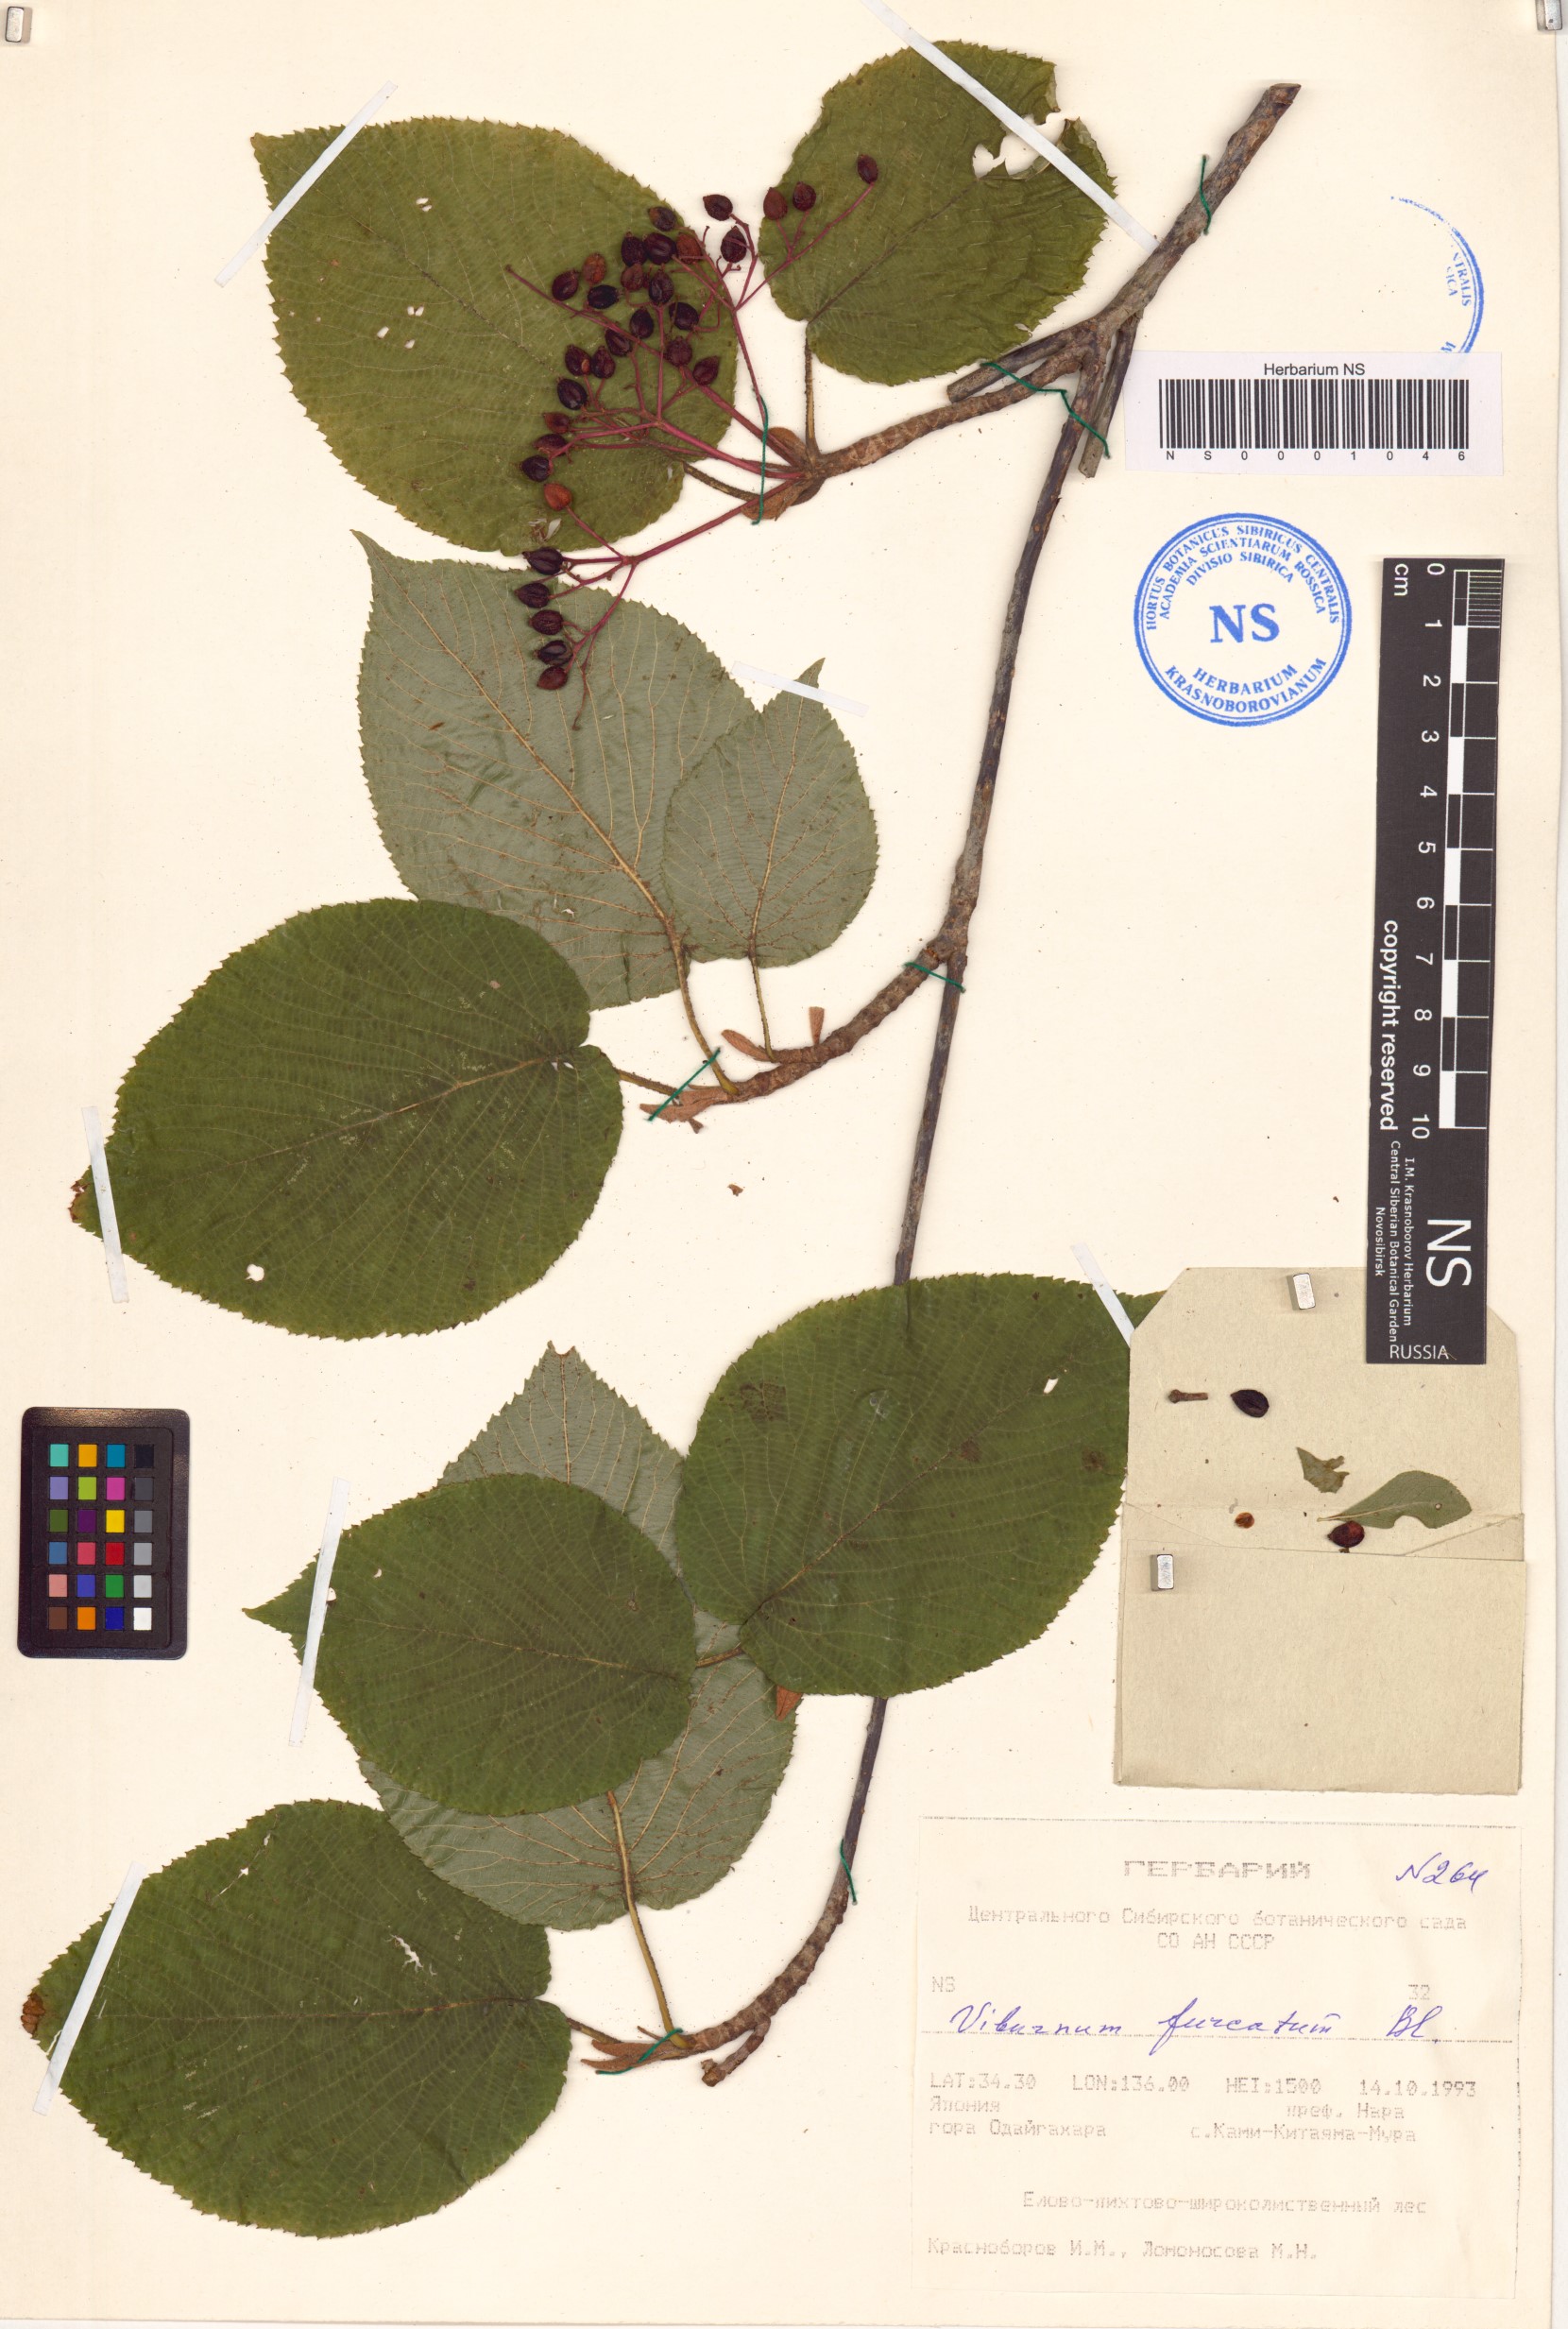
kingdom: Plantae
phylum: Tracheophyta
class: Magnoliopsida
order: Dipsacales
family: Viburnaceae
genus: Viburnum
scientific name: Viburnum furcatum
